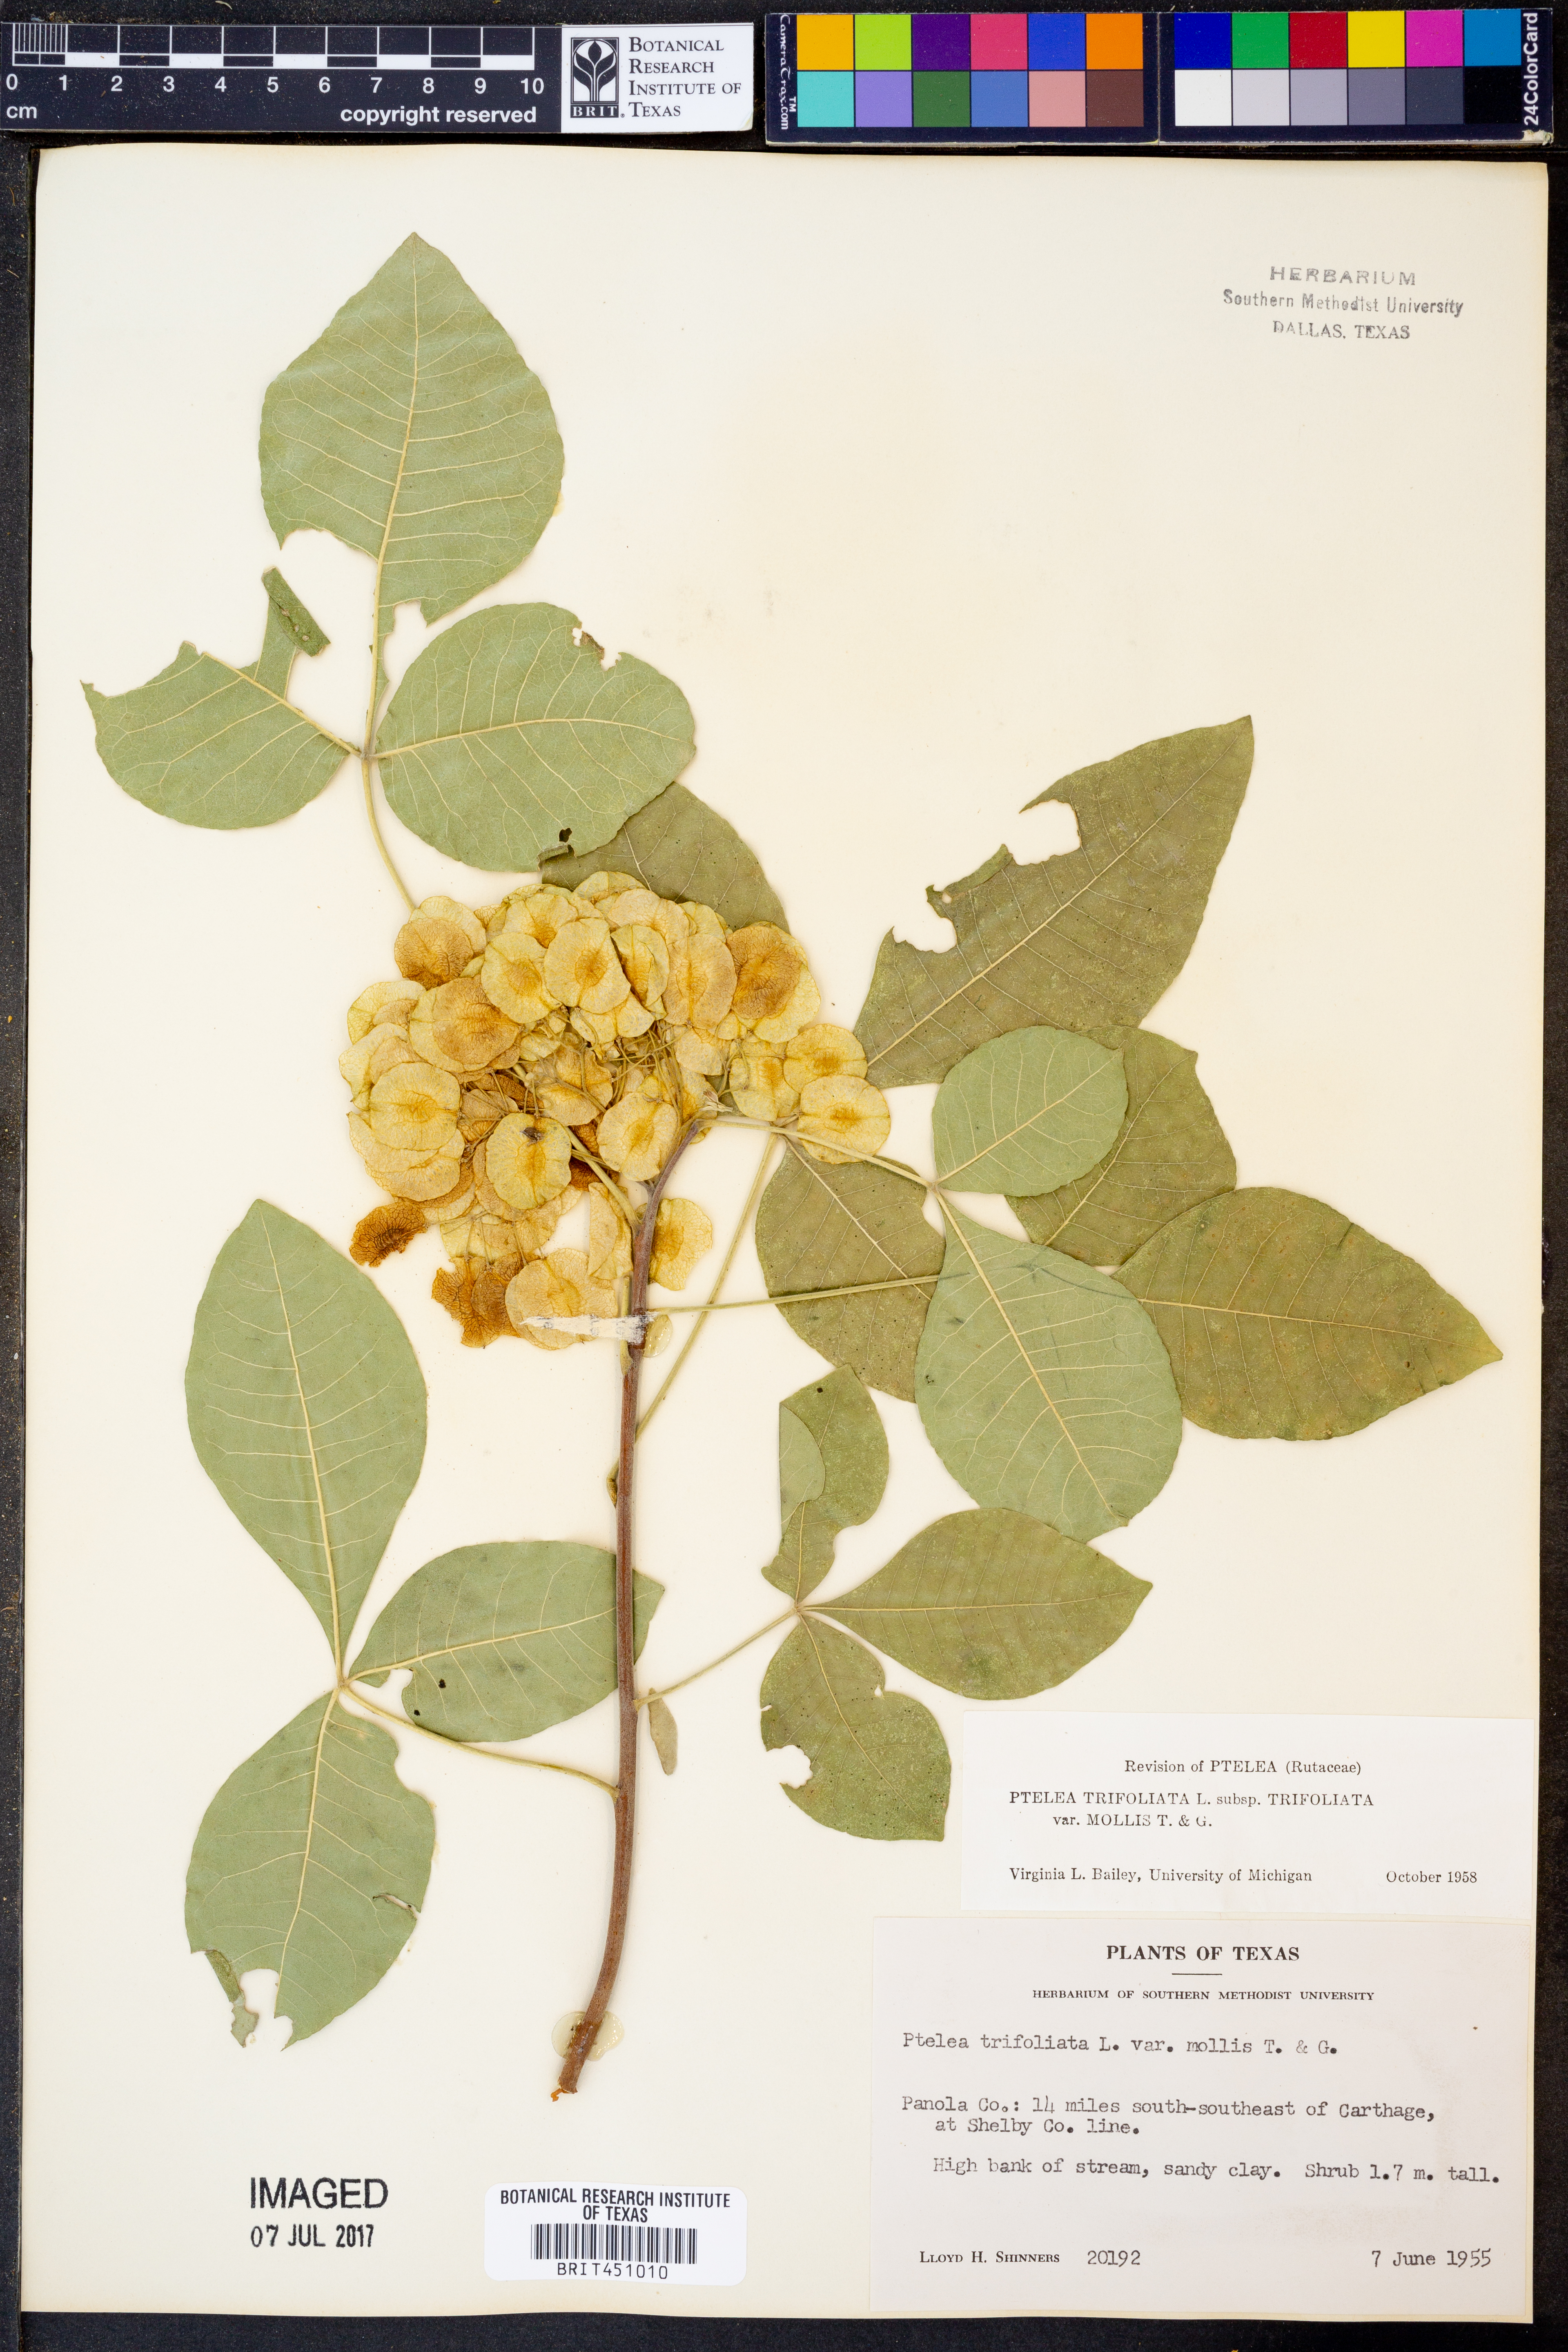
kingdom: Plantae
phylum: Tracheophyta
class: Magnoliopsida
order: Sapindales
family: Rutaceae
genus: Ptelea
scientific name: Ptelea trifoliata
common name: Common hop-tree
